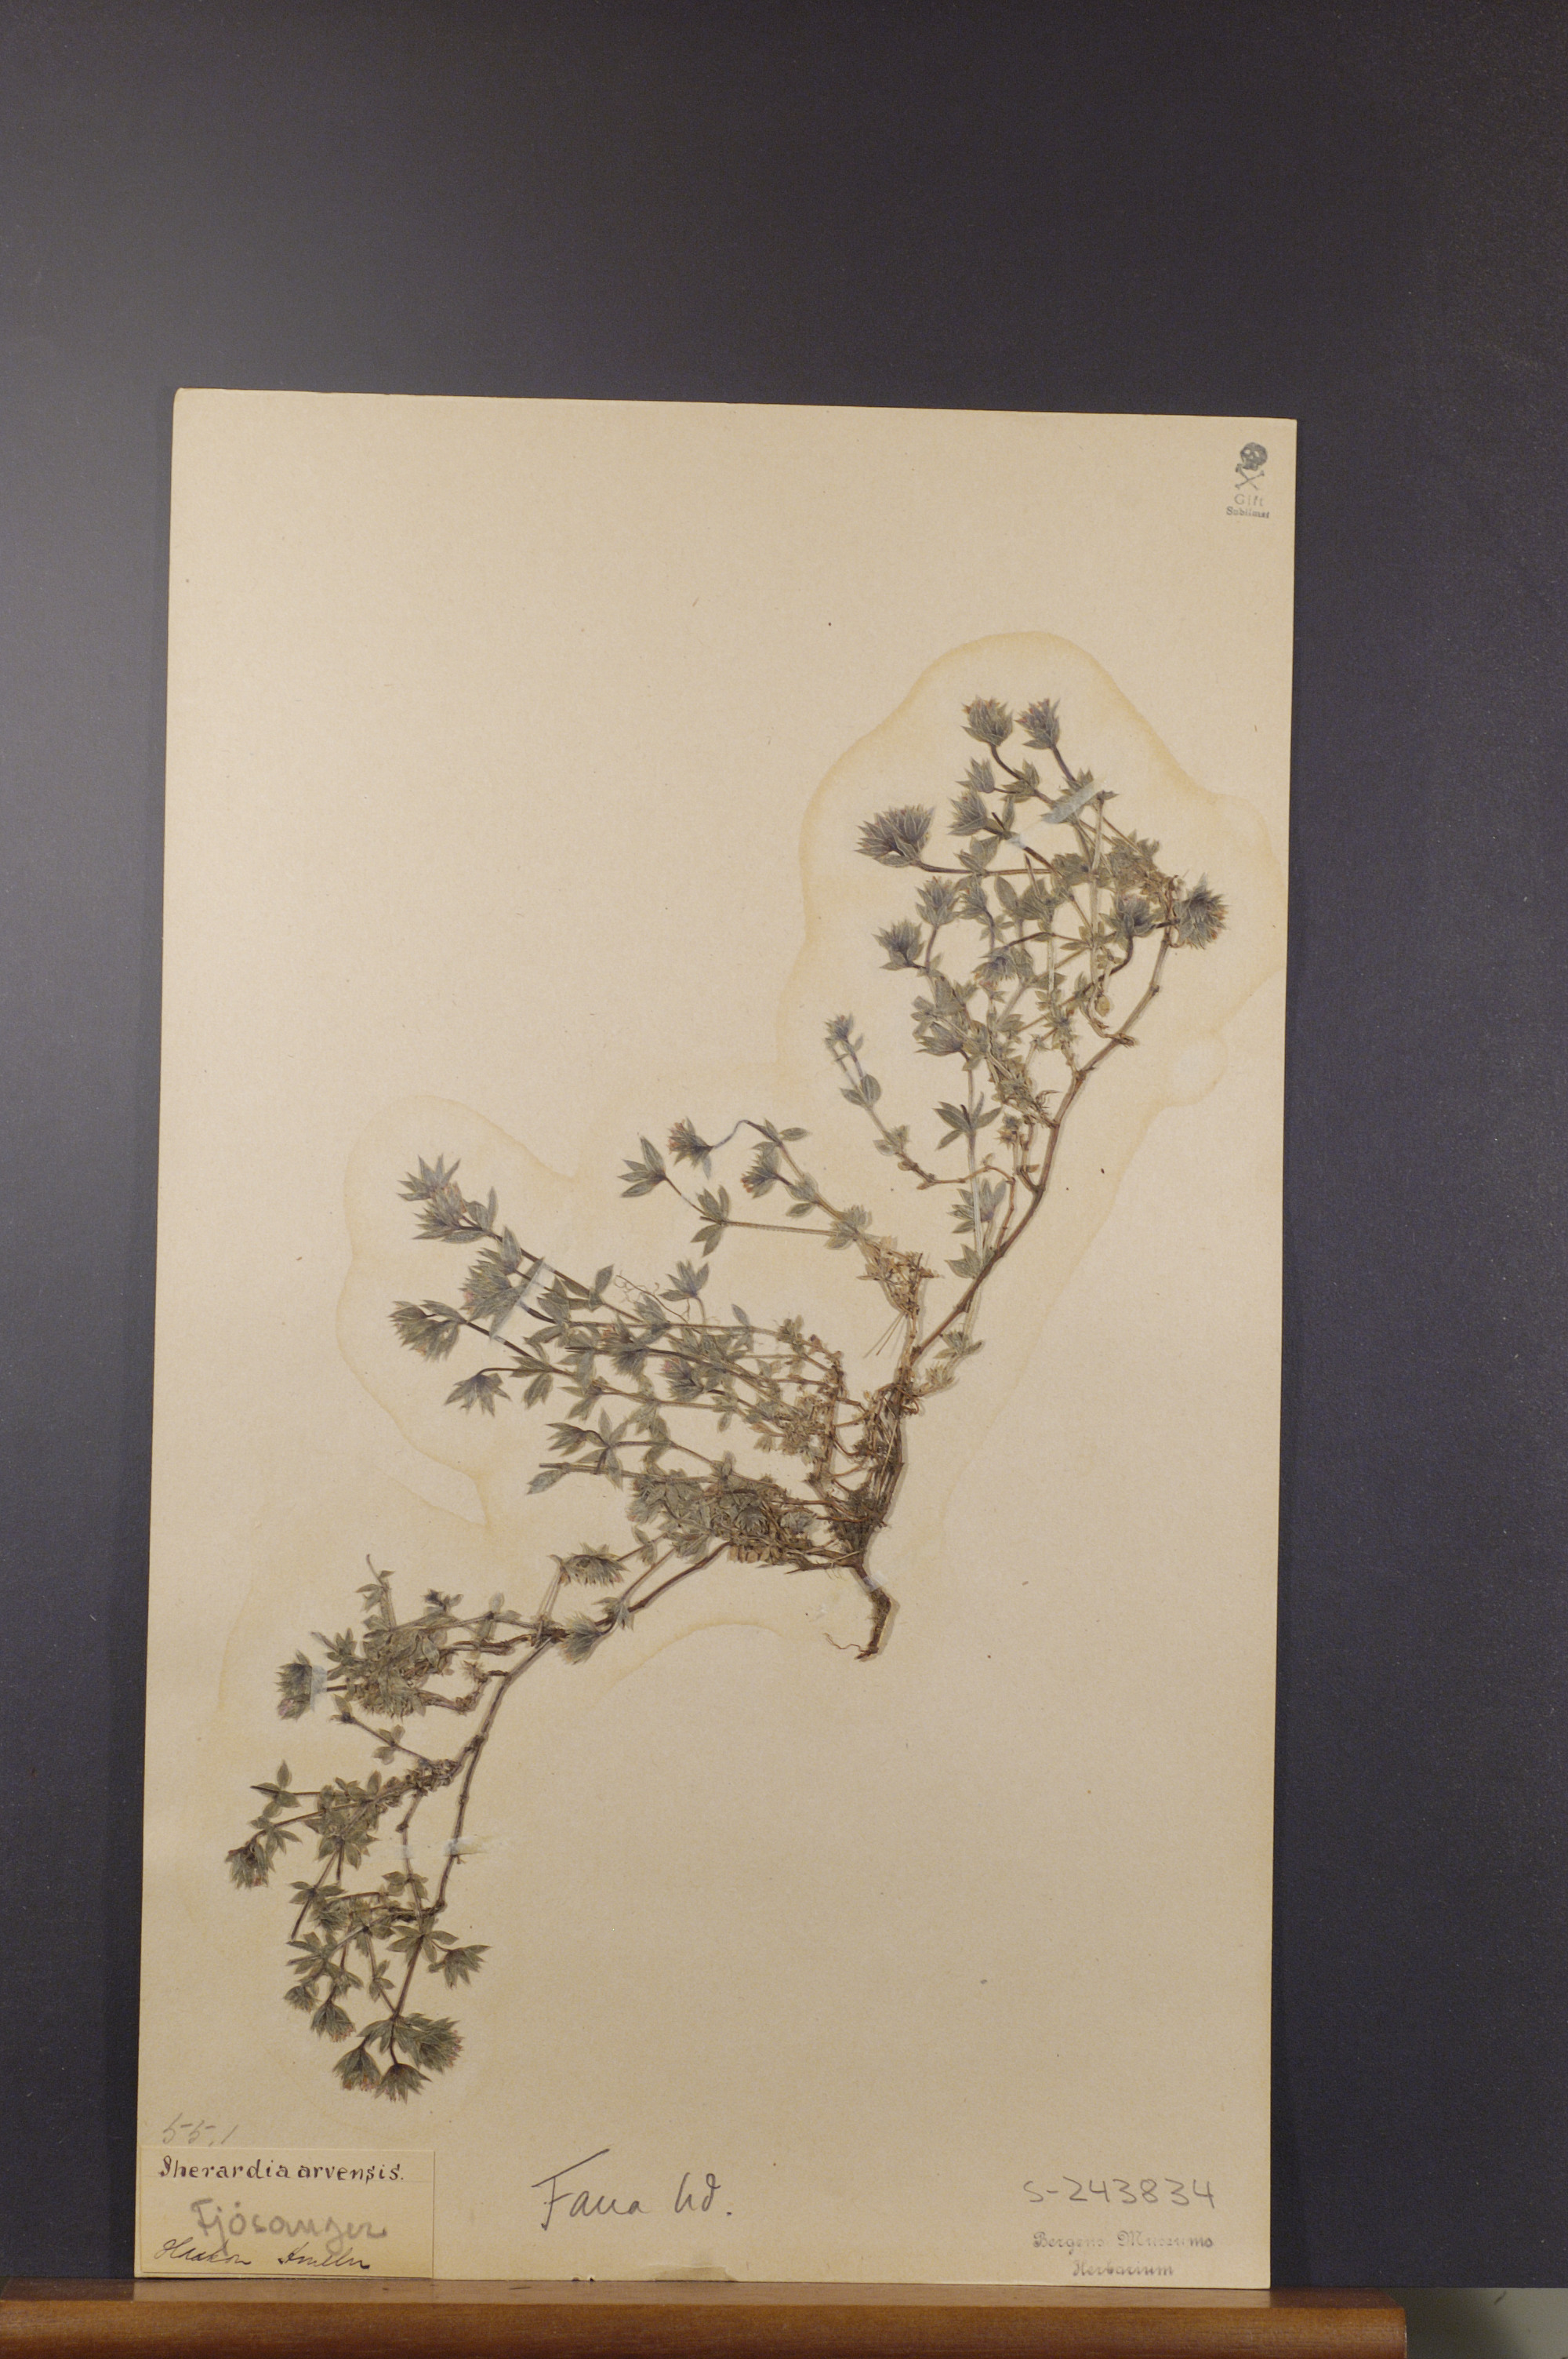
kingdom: Plantae
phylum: Tracheophyta
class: Magnoliopsida
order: Gentianales
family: Rubiaceae
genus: Sherardia
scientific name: Sherardia arvensis
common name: Field madder
